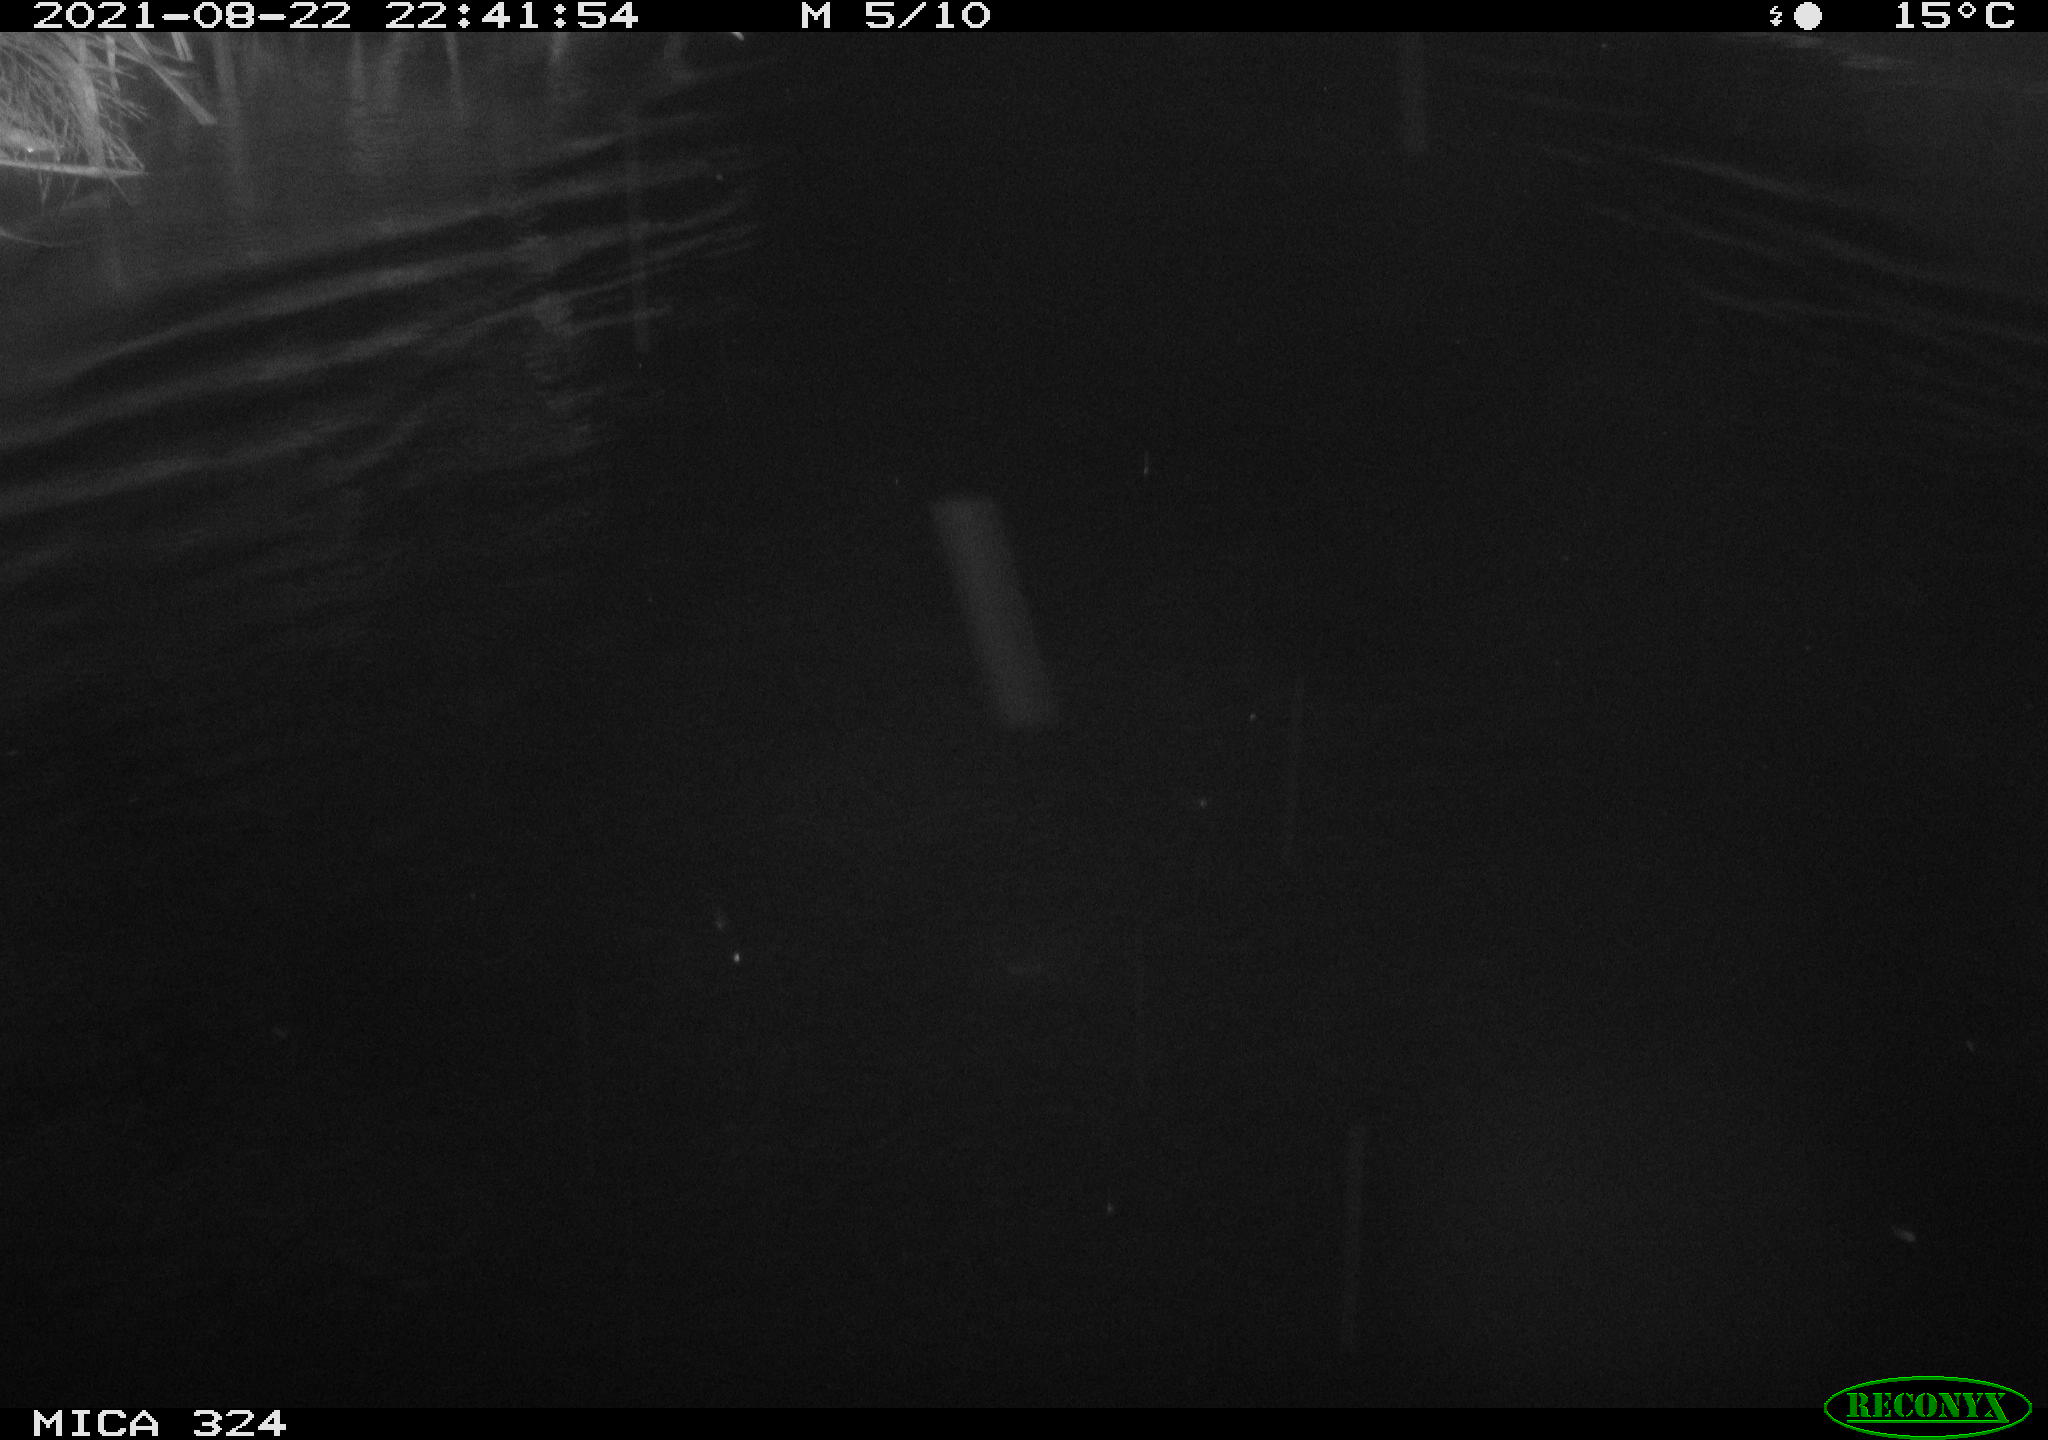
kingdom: Animalia
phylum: Chordata
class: Mammalia
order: Rodentia
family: Cricetidae
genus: Ondatra
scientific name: Ondatra zibethicus
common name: Muskrat
